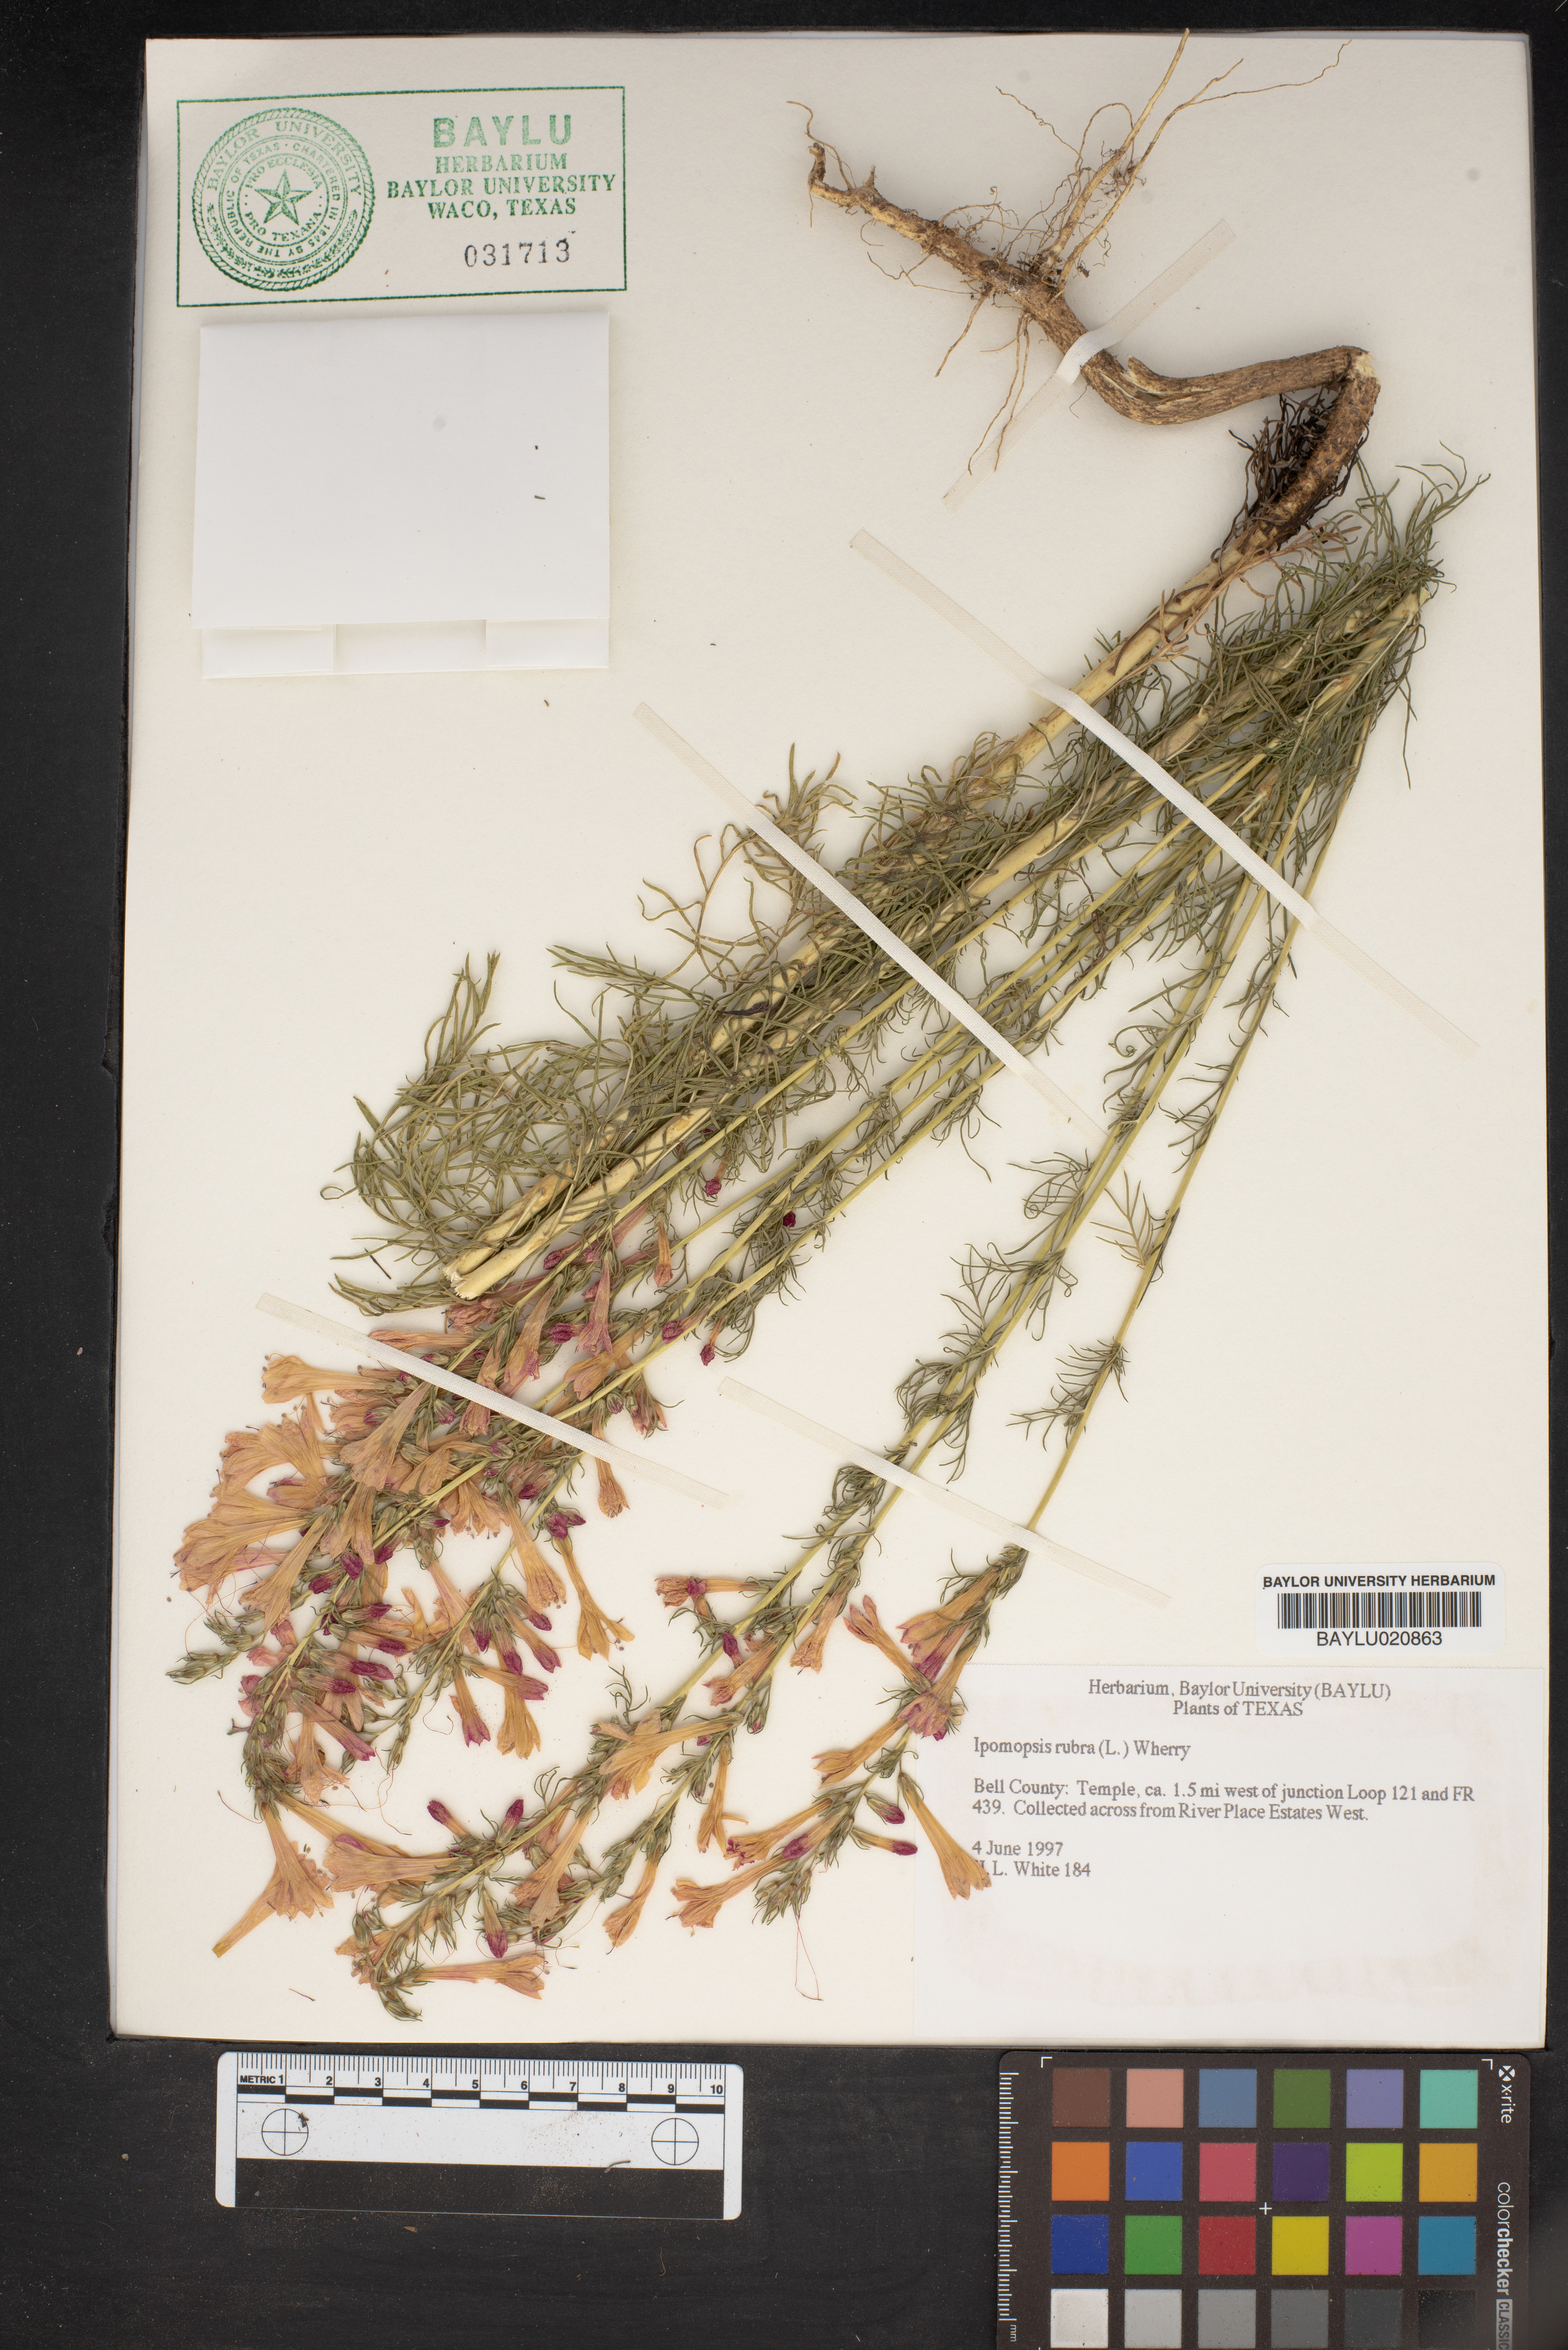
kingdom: Plantae
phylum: Tracheophyta
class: Magnoliopsida
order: Ericales
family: Polemoniaceae
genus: Ipomopsis
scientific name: Ipomopsis rubra
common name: Skyrocket
